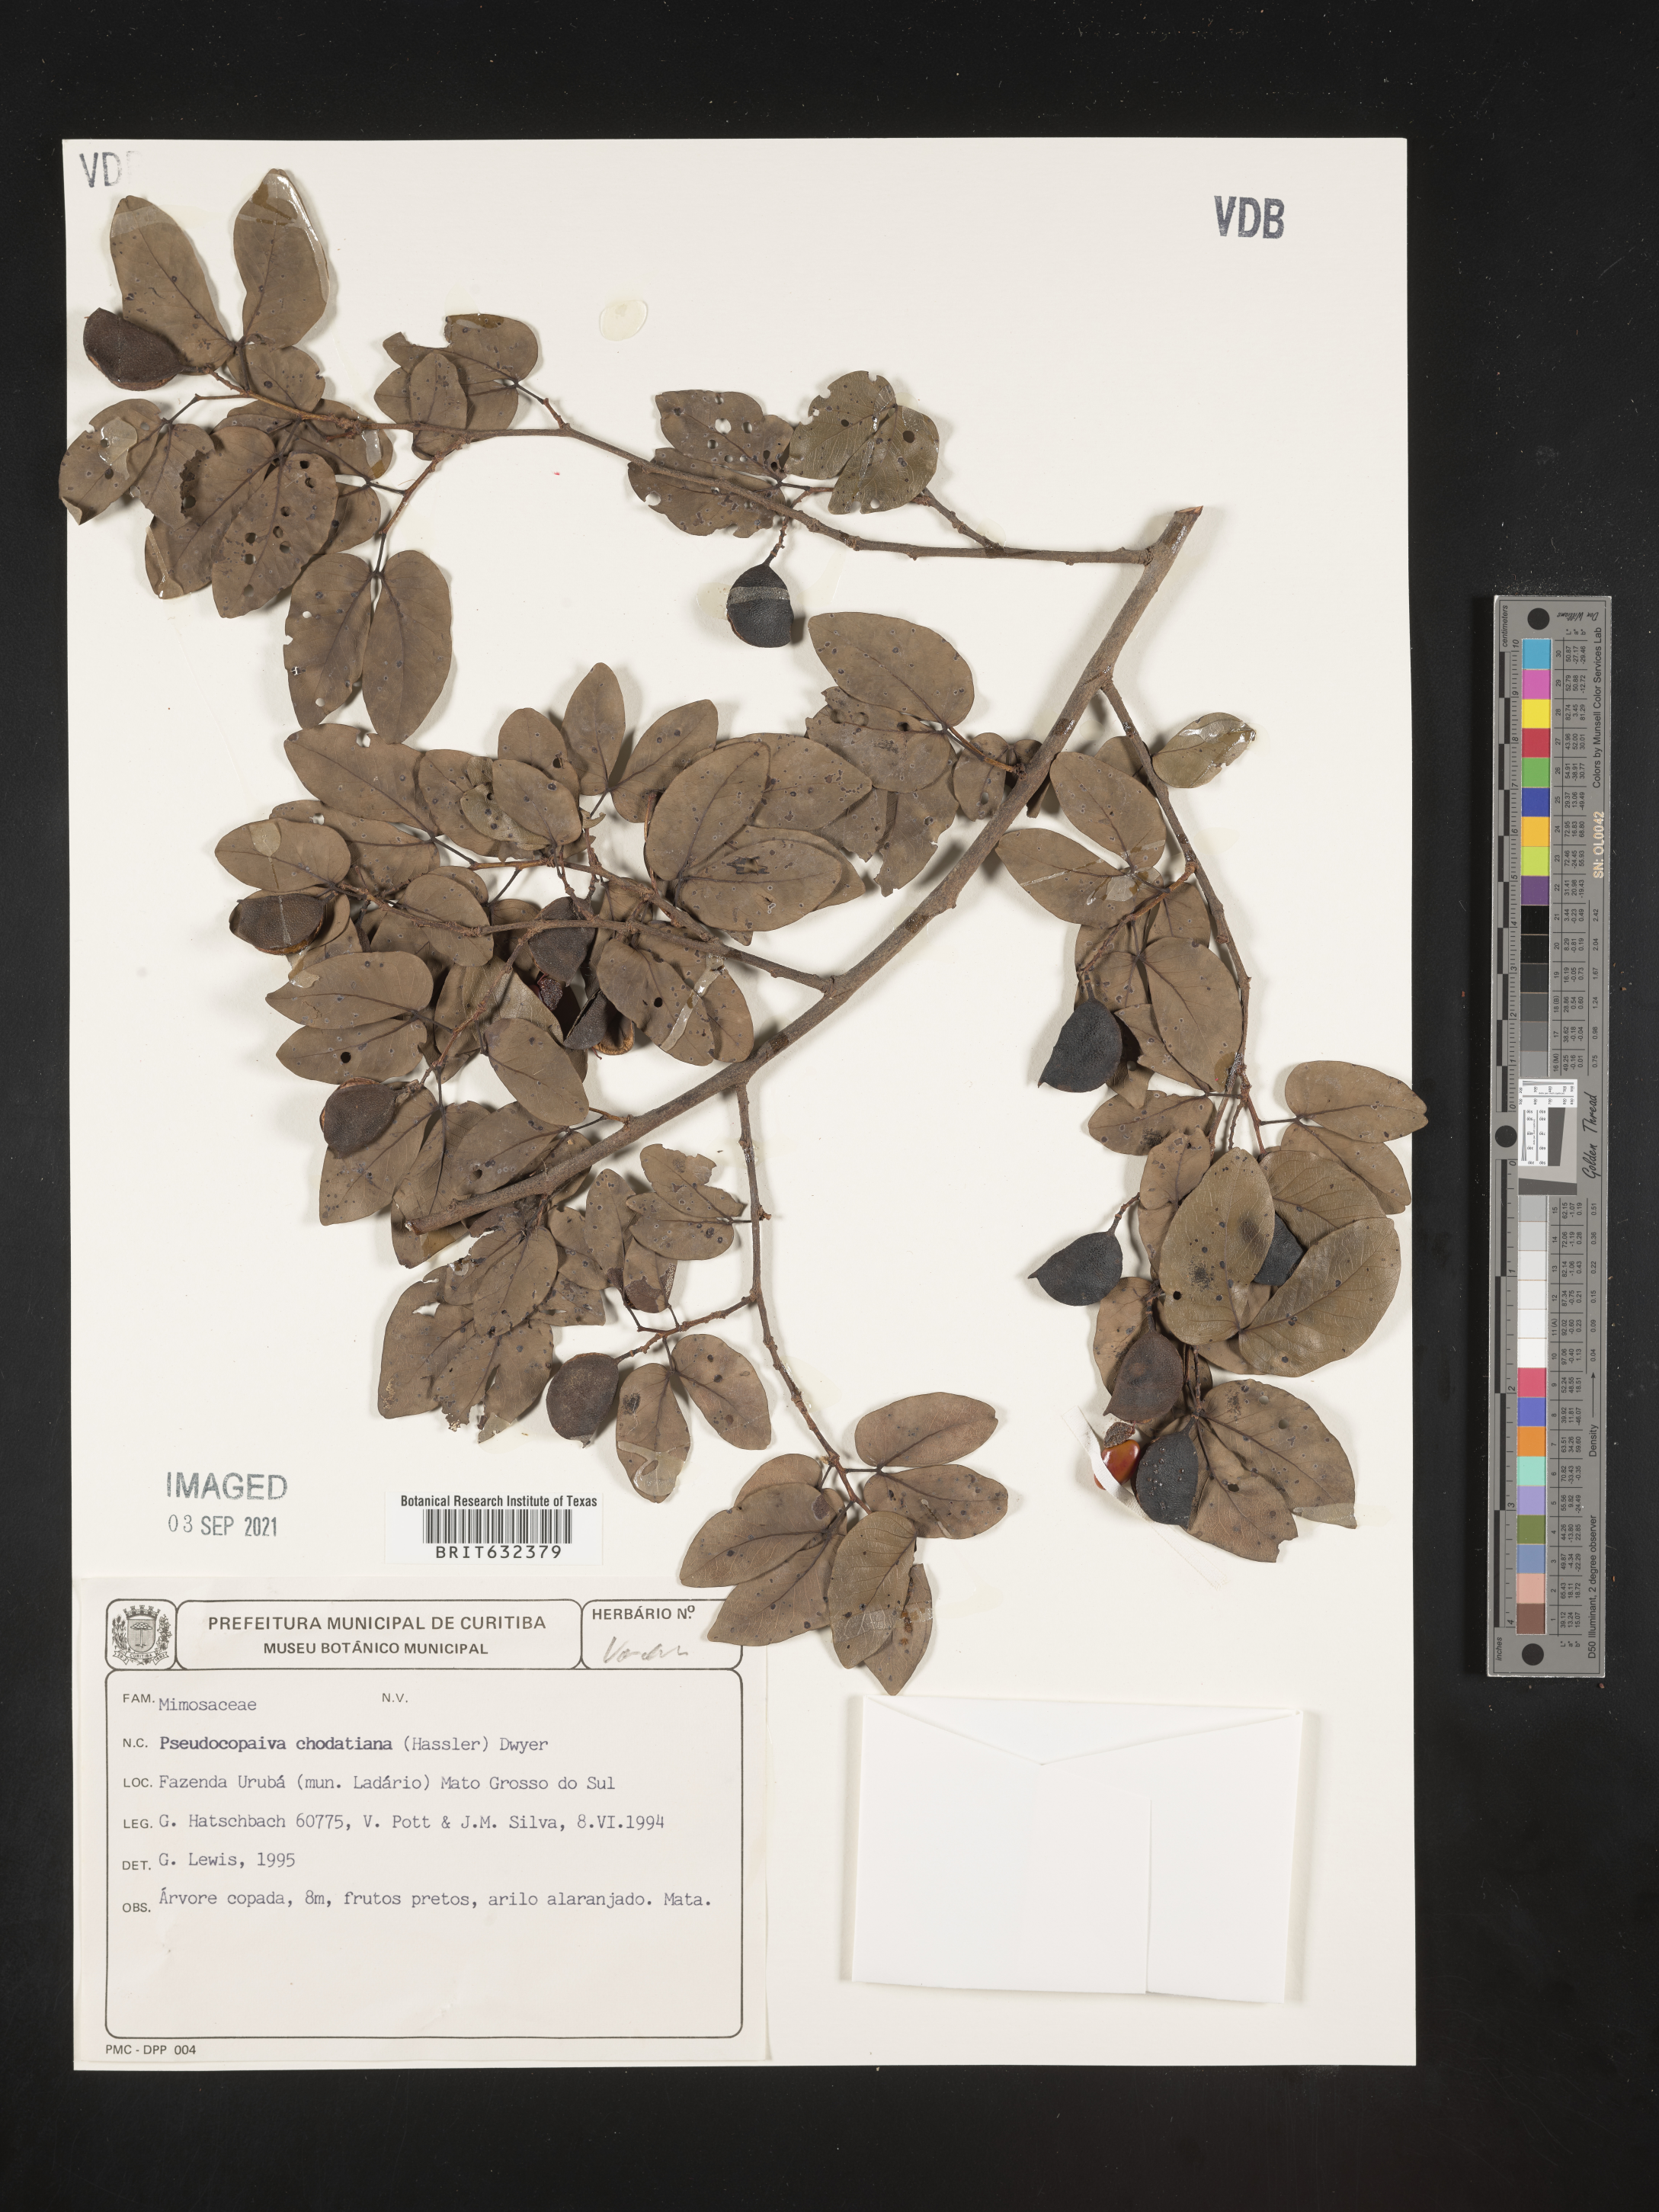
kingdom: Plantae
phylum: Tracheophyta
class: Magnoliopsida
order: Fabales
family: Fabaceae
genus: Guibourtia
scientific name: Guibourtia chodatiana
